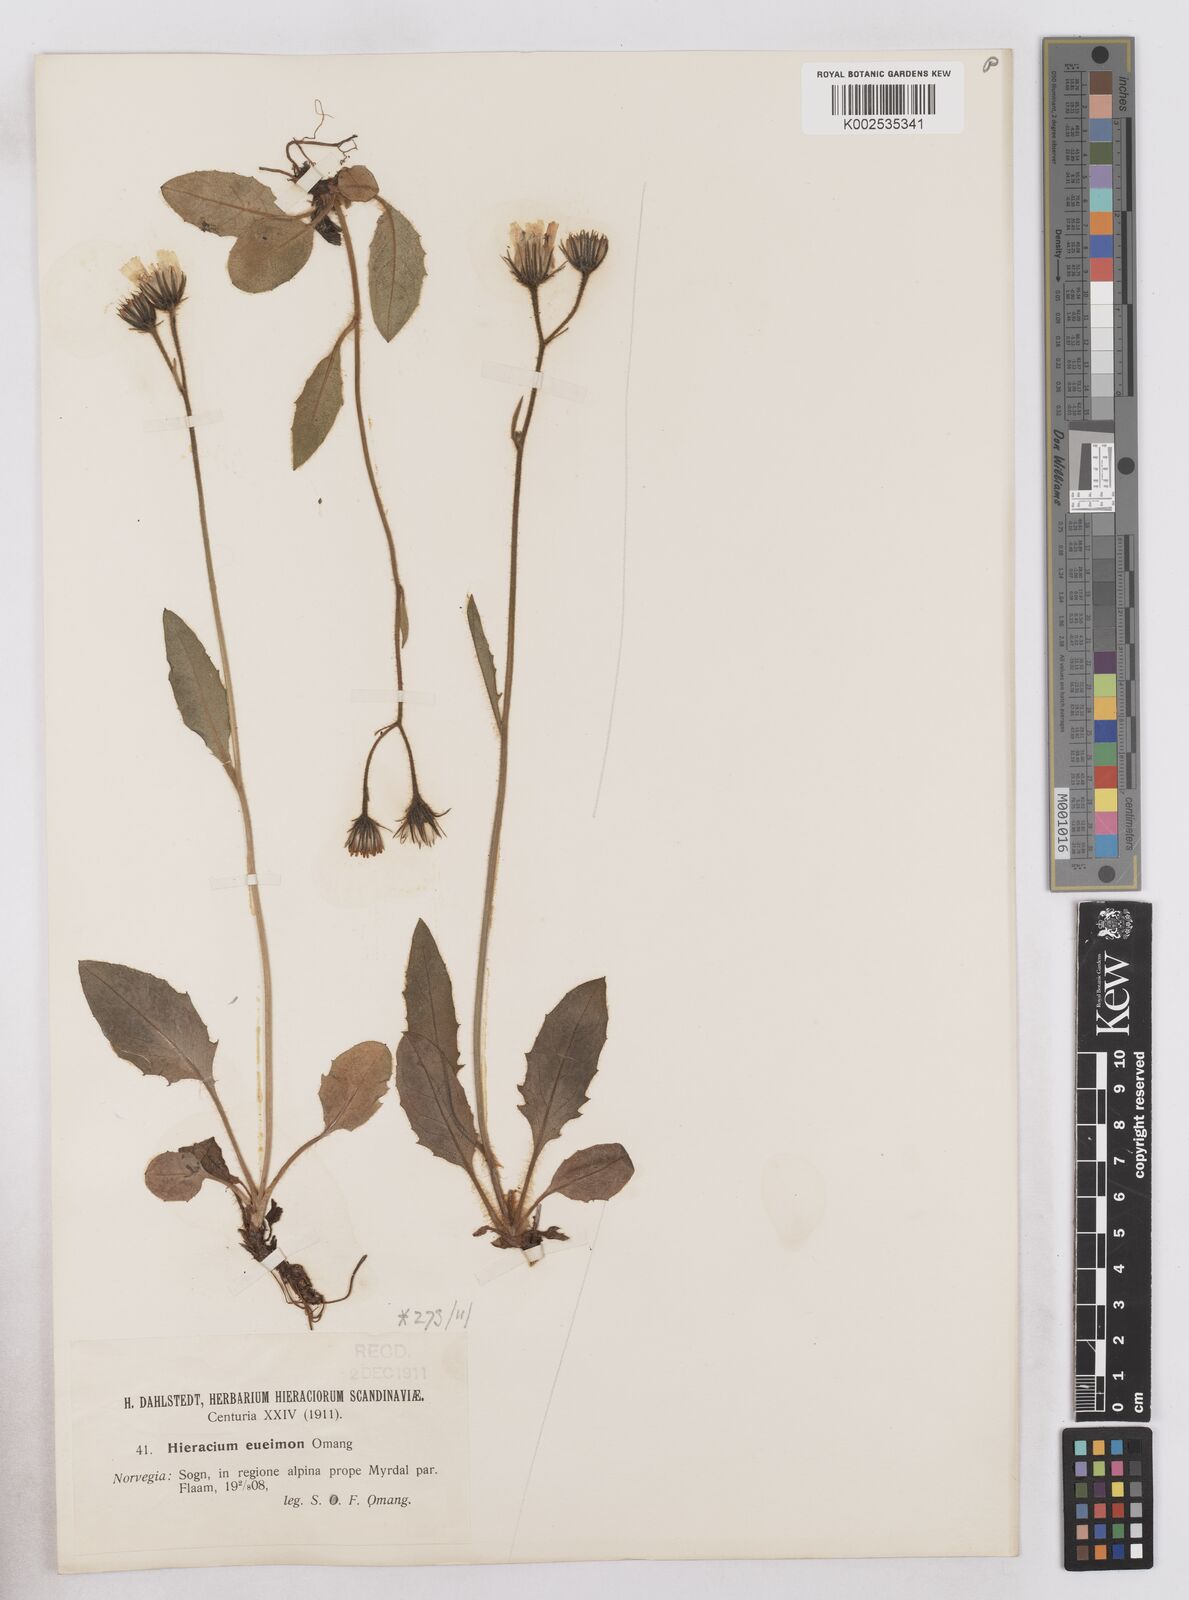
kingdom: Plantae
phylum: Tracheophyta
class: Magnoliopsida
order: Asterales
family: Asteraceae
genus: Hieracium
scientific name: Hieracium conspurcans
